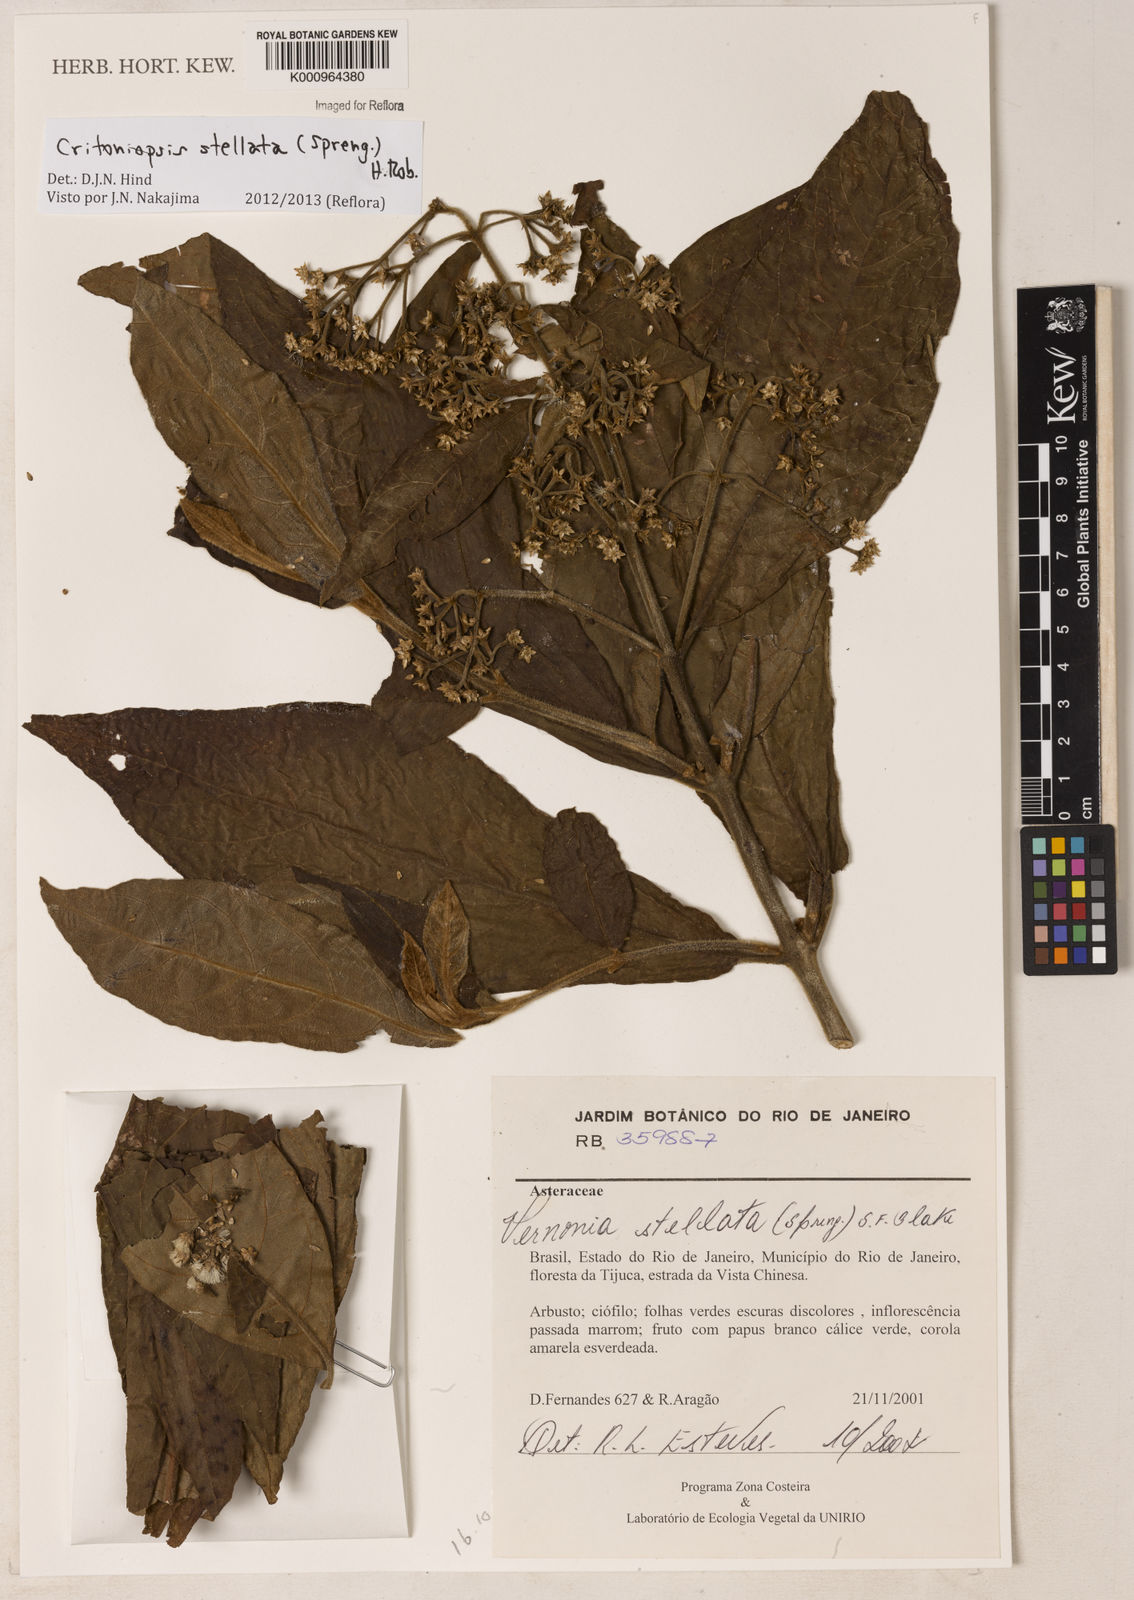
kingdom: Plantae
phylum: Tracheophyta
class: Magnoliopsida
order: Asterales
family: Asteraceae
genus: Critoniopsis
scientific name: Critoniopsis stellata
